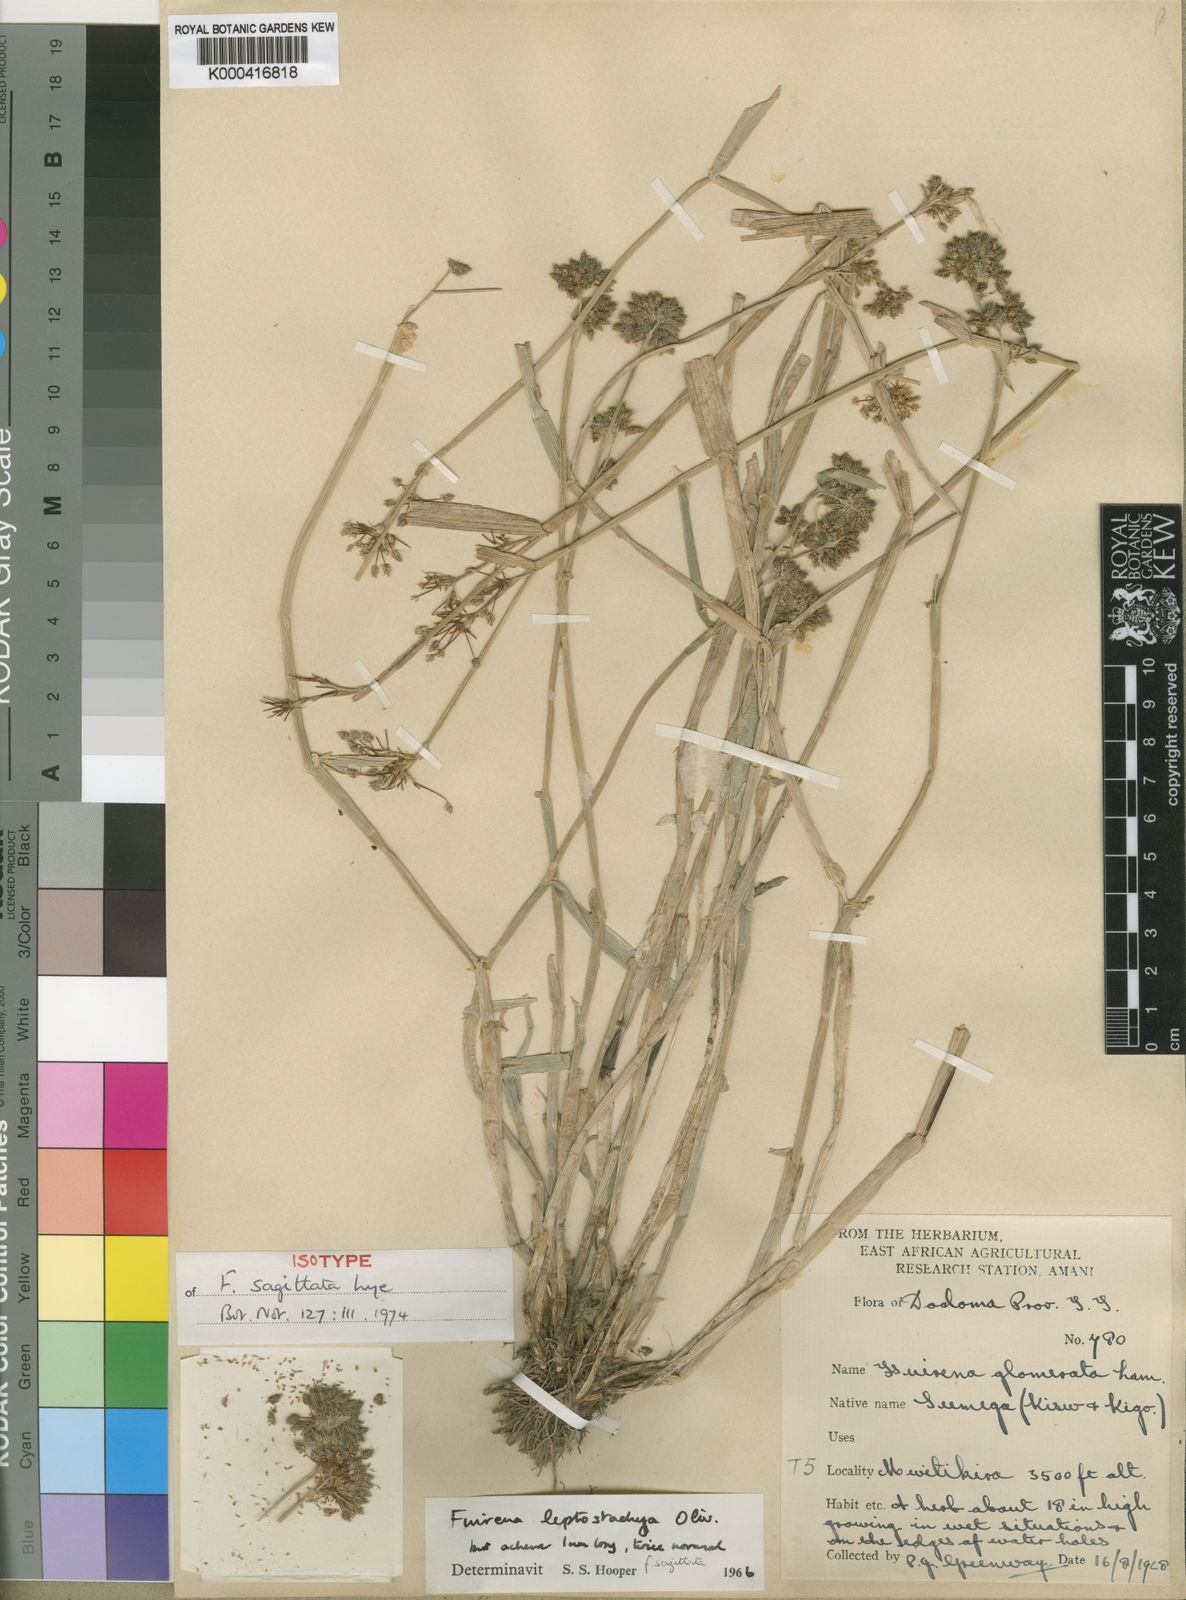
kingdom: Plantae
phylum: Tracheophyta
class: Liliopsida
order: Poales
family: Cyperaceae
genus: Fuirena
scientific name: Fuirena leptostachya
